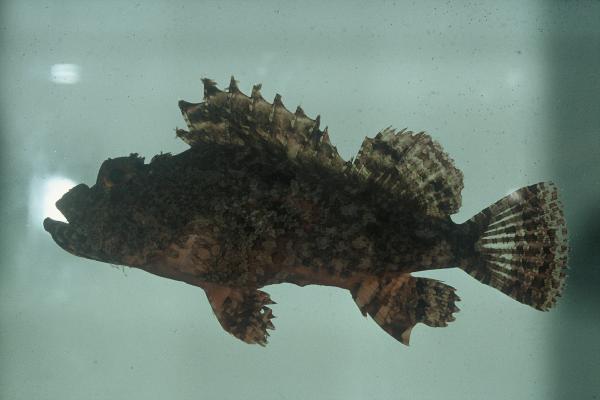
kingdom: Animalia
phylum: Chordata
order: Scorpaeniformes
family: Scorpaenidae
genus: Scorpaenopsis
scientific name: Scorpaenopsis venosa
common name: Raggy scorpionfish
